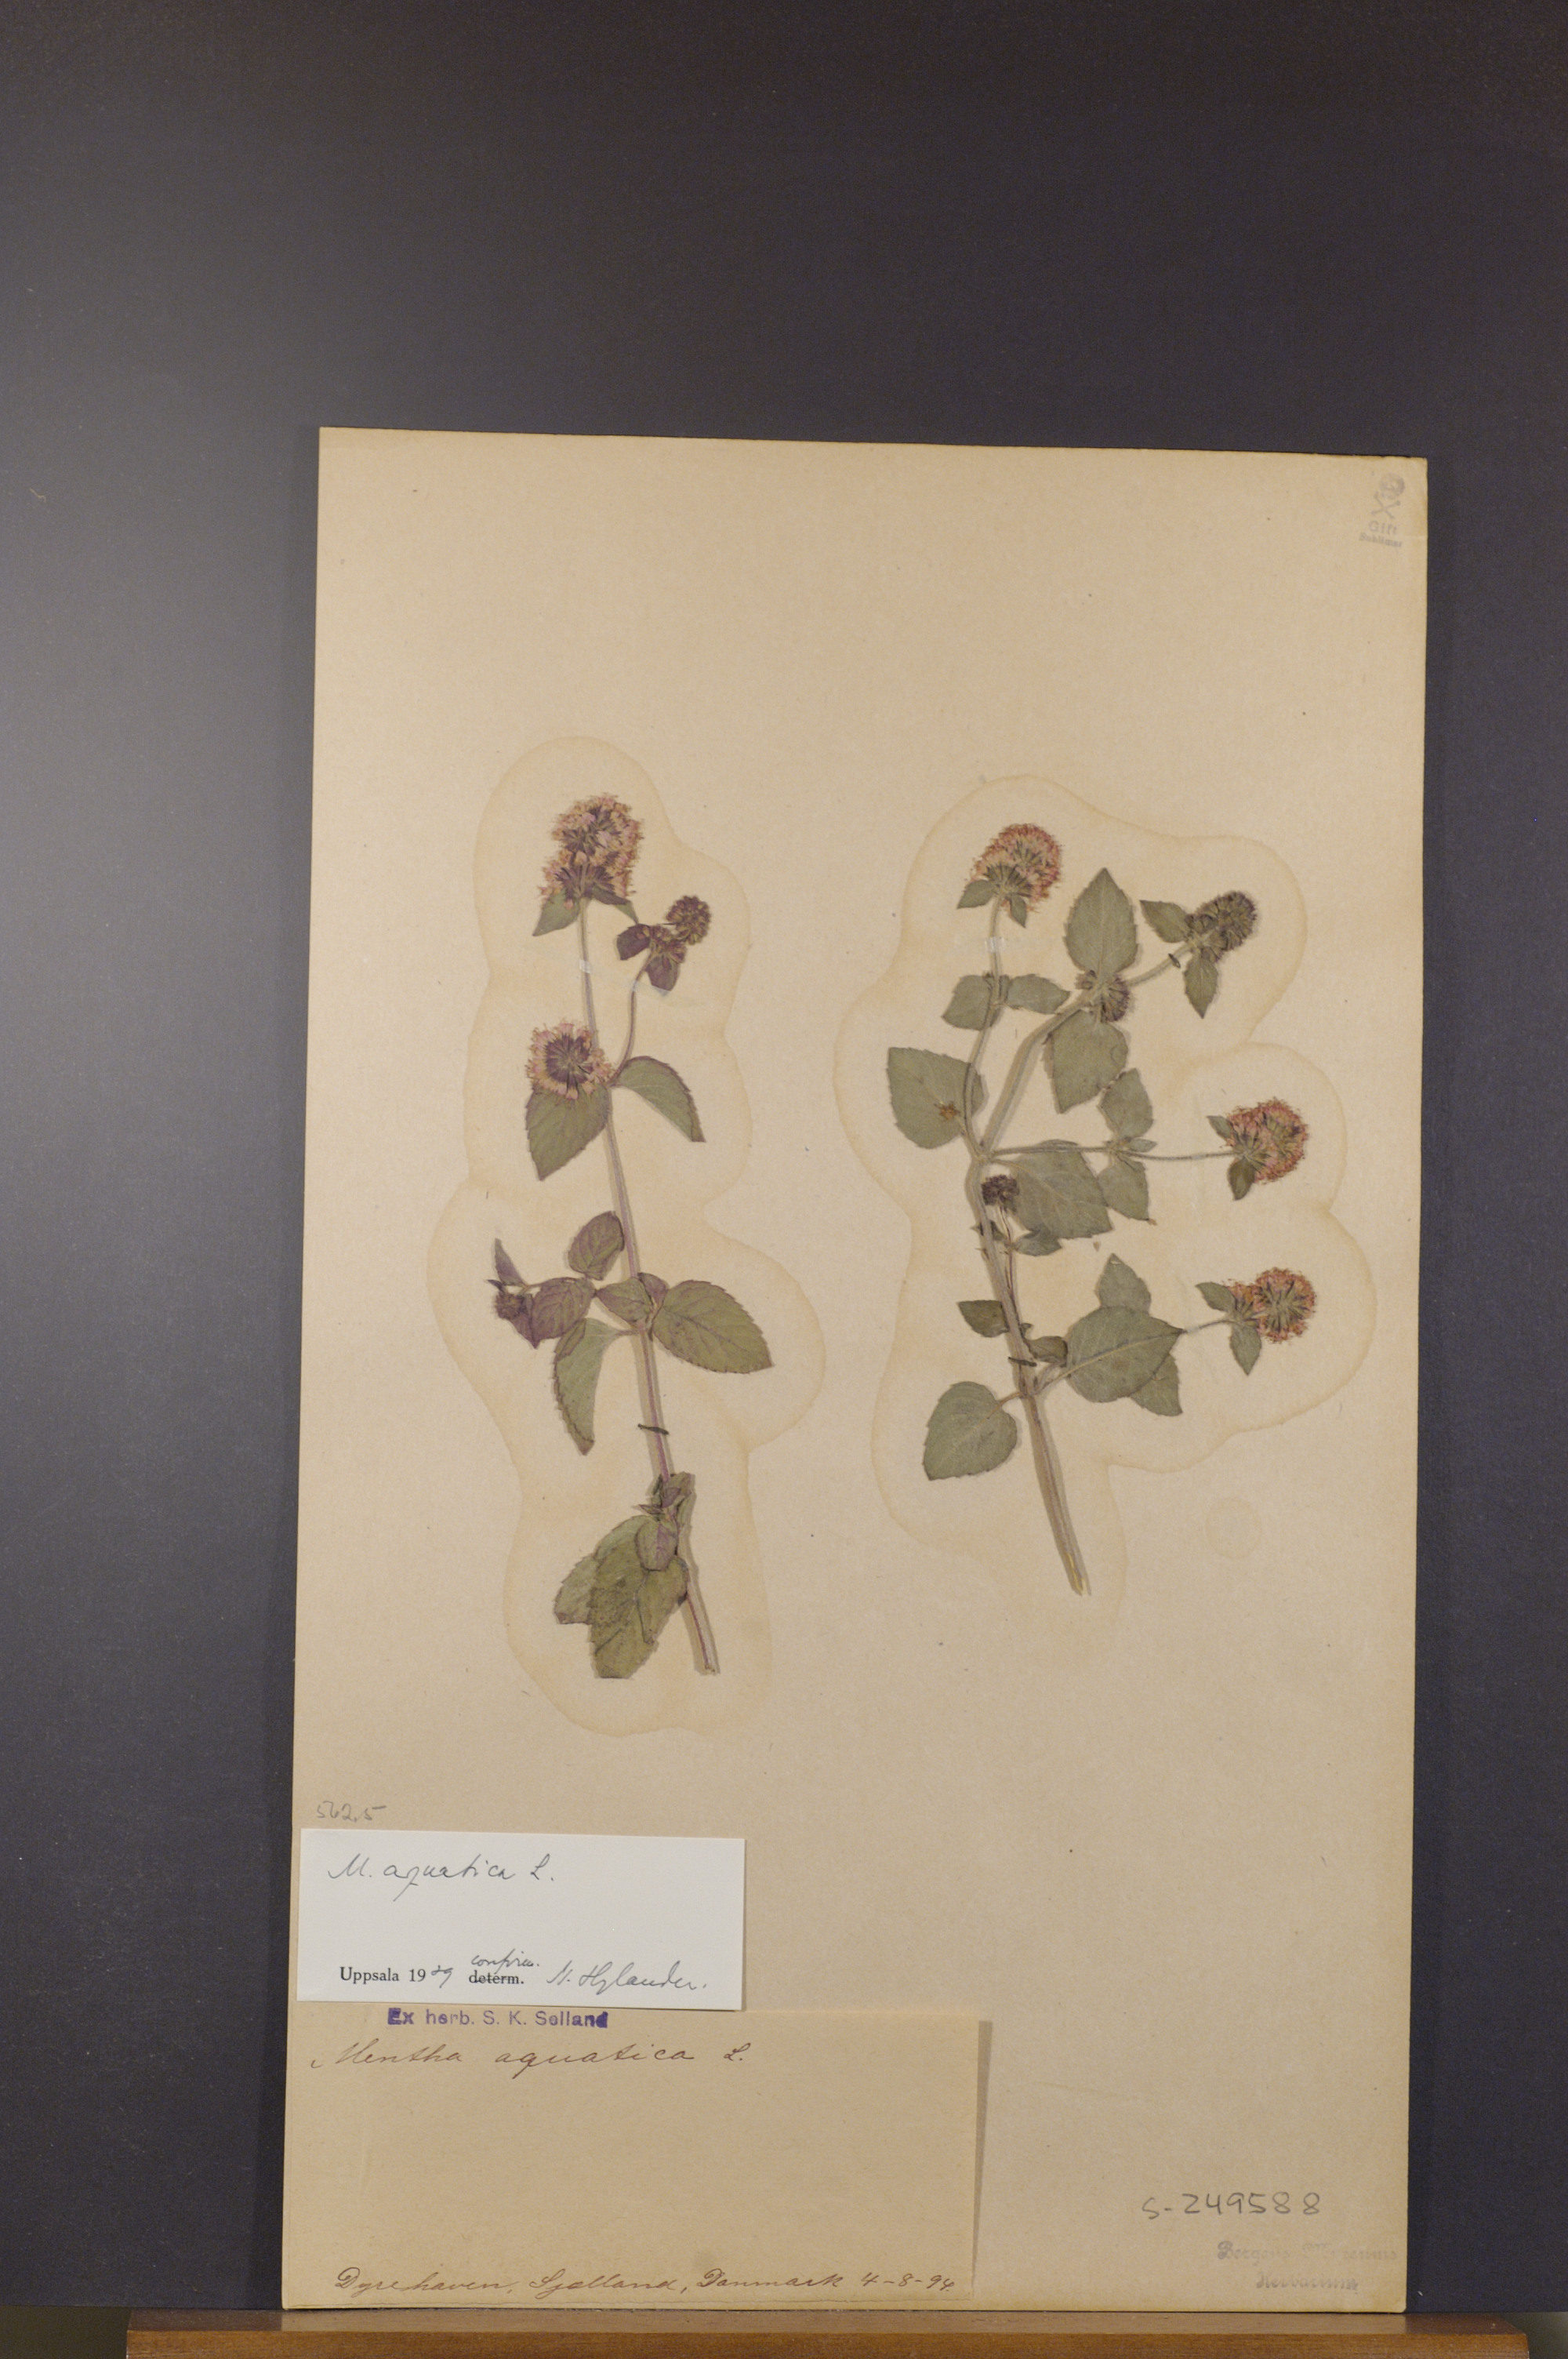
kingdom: Plantae
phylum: Tracheophyta
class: Magnoliopsida
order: Lamiales
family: Lamiaceae
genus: Mentha
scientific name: Mentha aquatica
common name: Water mint
